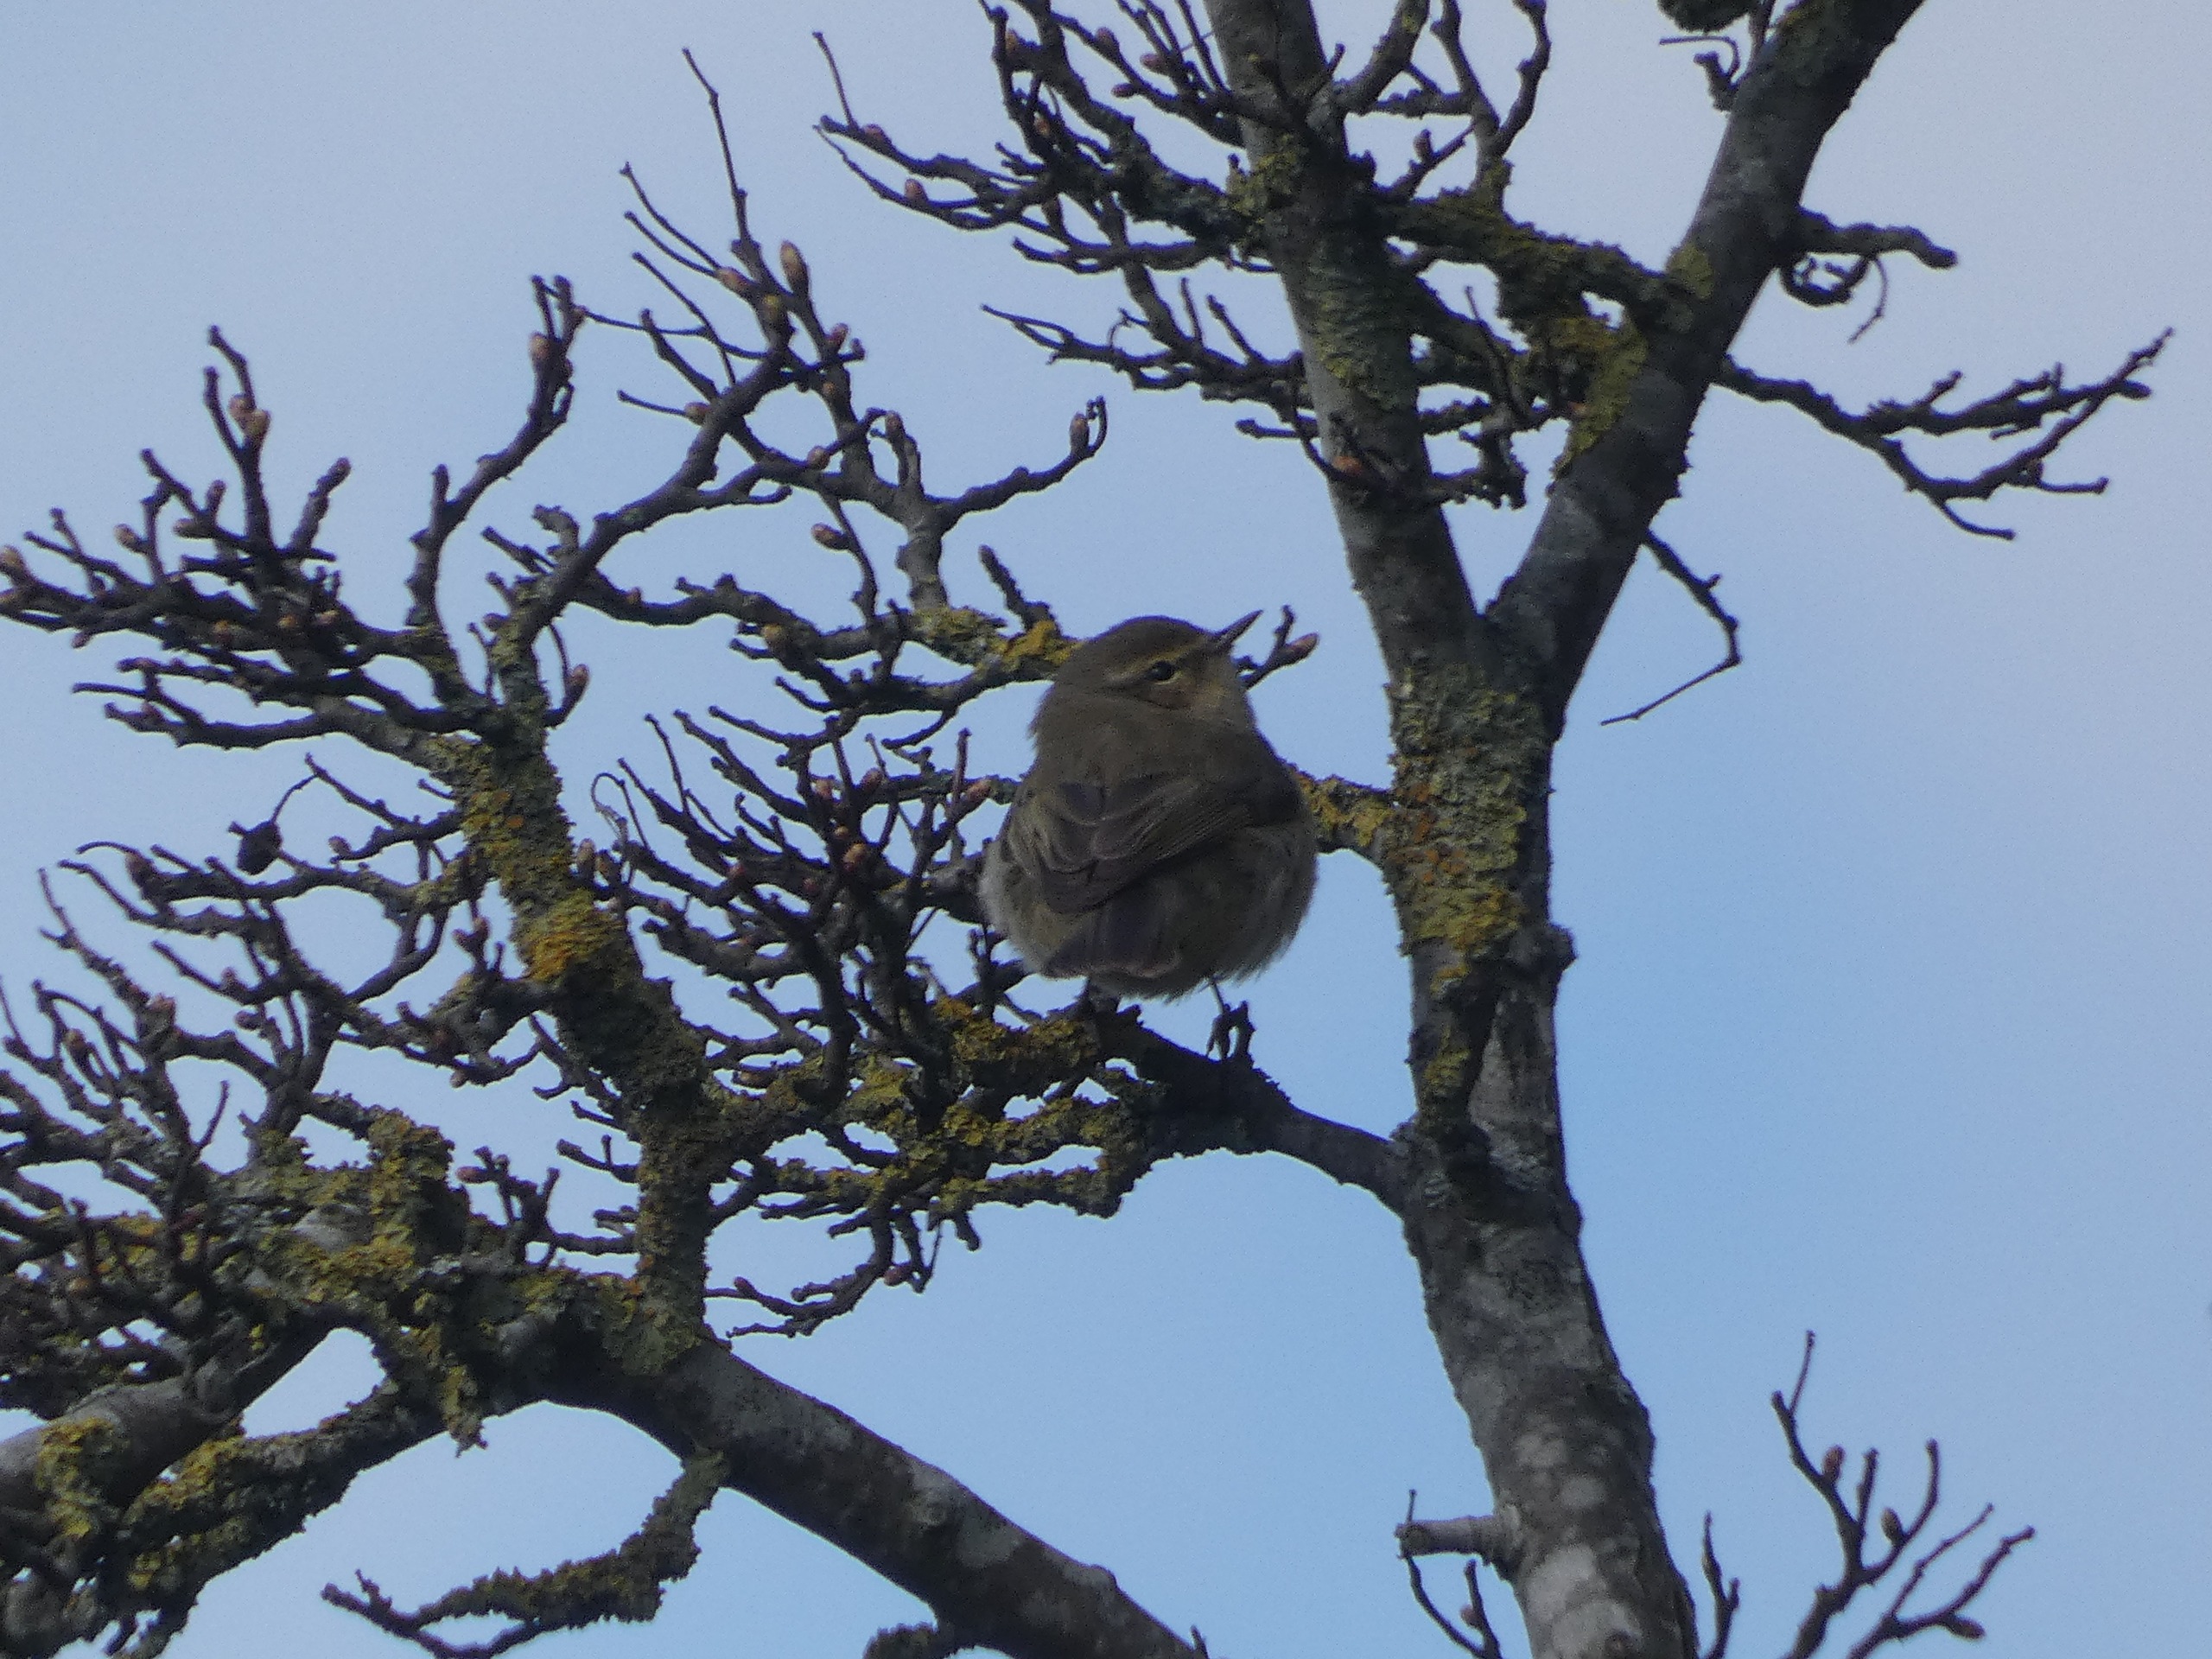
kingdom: Animalia
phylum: Chordata
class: Aves
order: Passeriformes
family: Phylloscopidae
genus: Phylloscopus
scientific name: Phylloscopus collybita
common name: Gransanger
